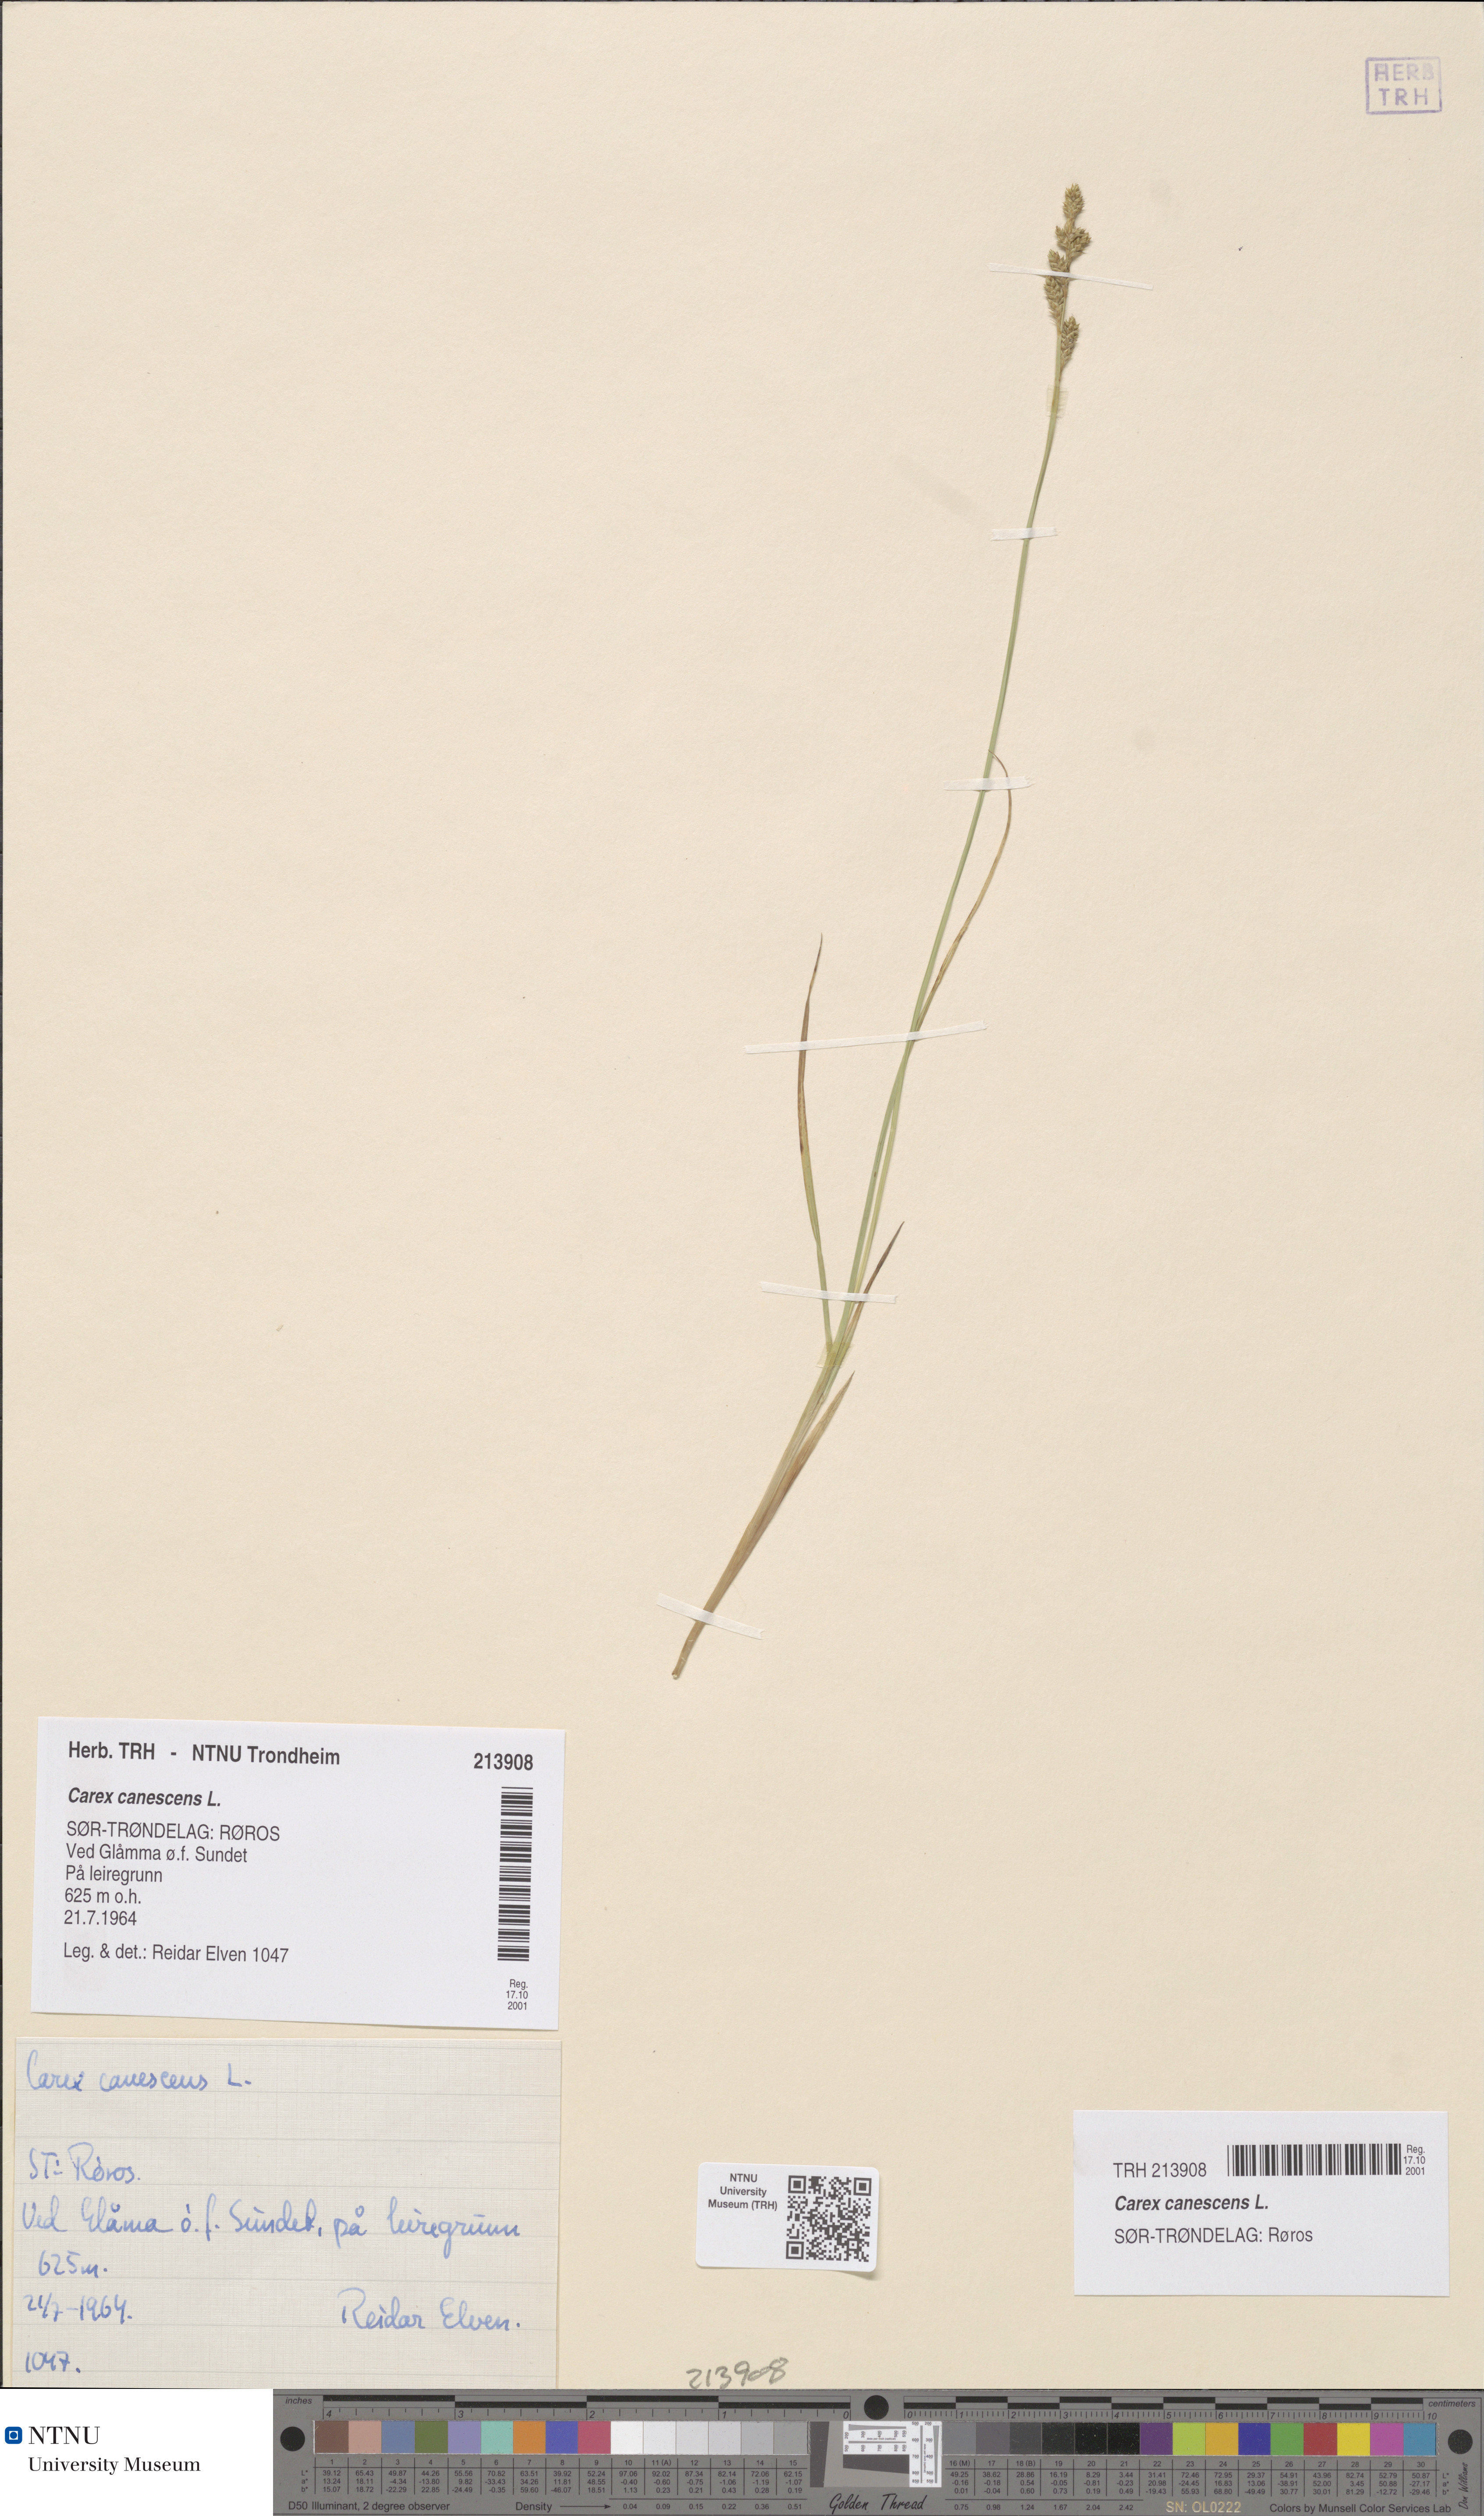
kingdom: Plantae
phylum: Tracheophyta
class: Liliopsida
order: Poales
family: Cyperaceae
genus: Carex
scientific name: Carex canescens
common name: White sedge
